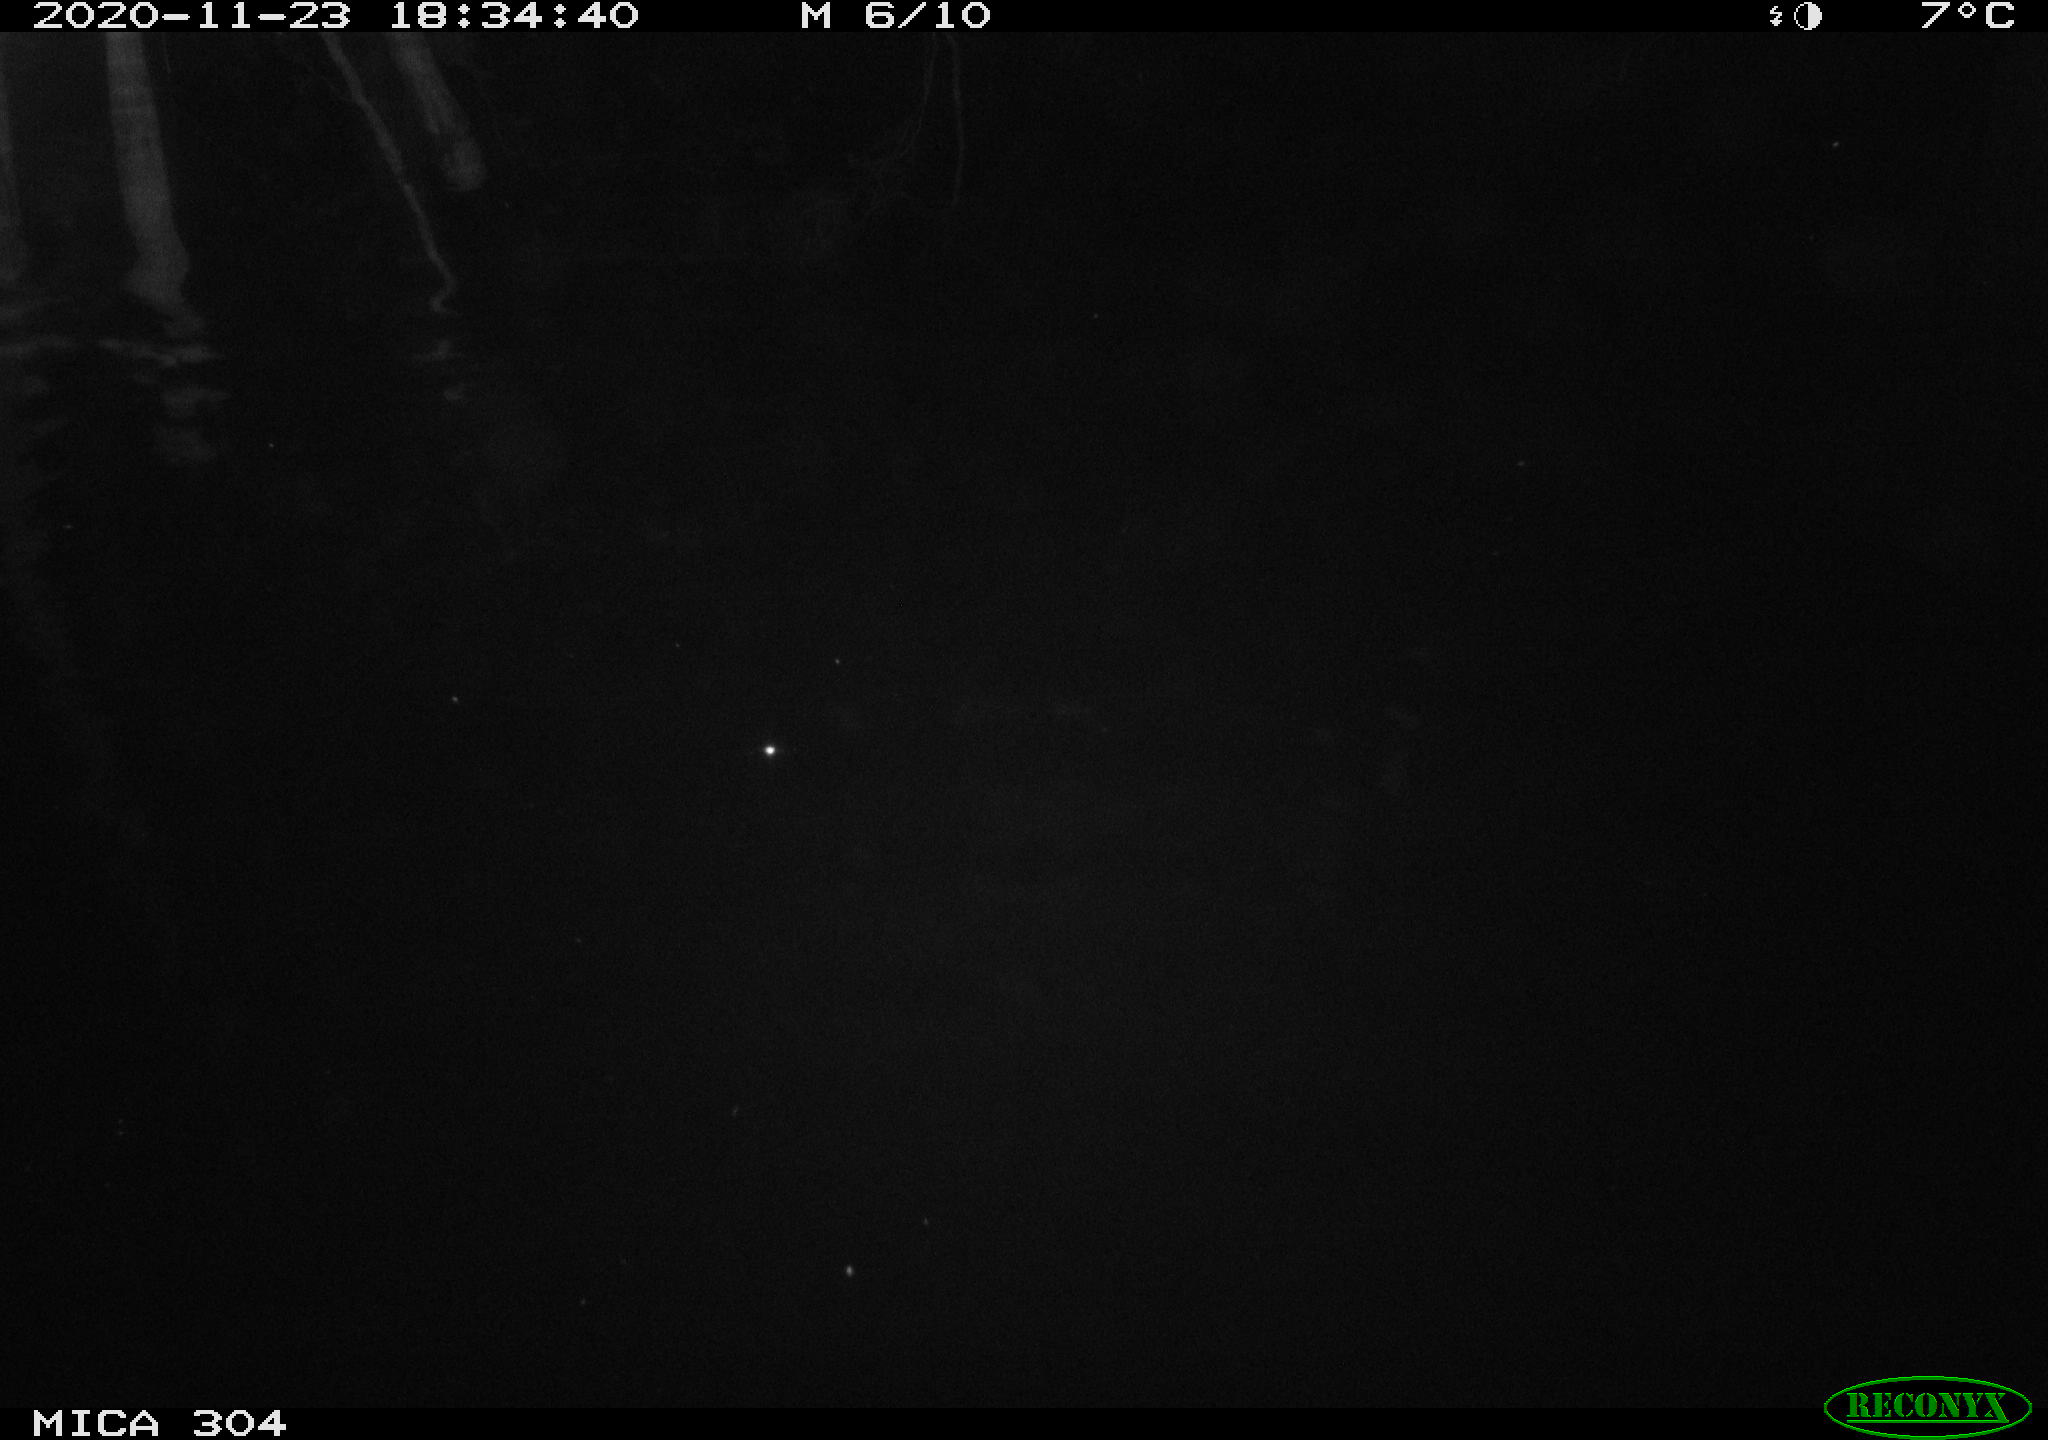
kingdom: Animalia
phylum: Chordata
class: Mammalia
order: Rodentia
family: Muridae
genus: Rattus
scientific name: Rattus norvegicus
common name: Brown rat
